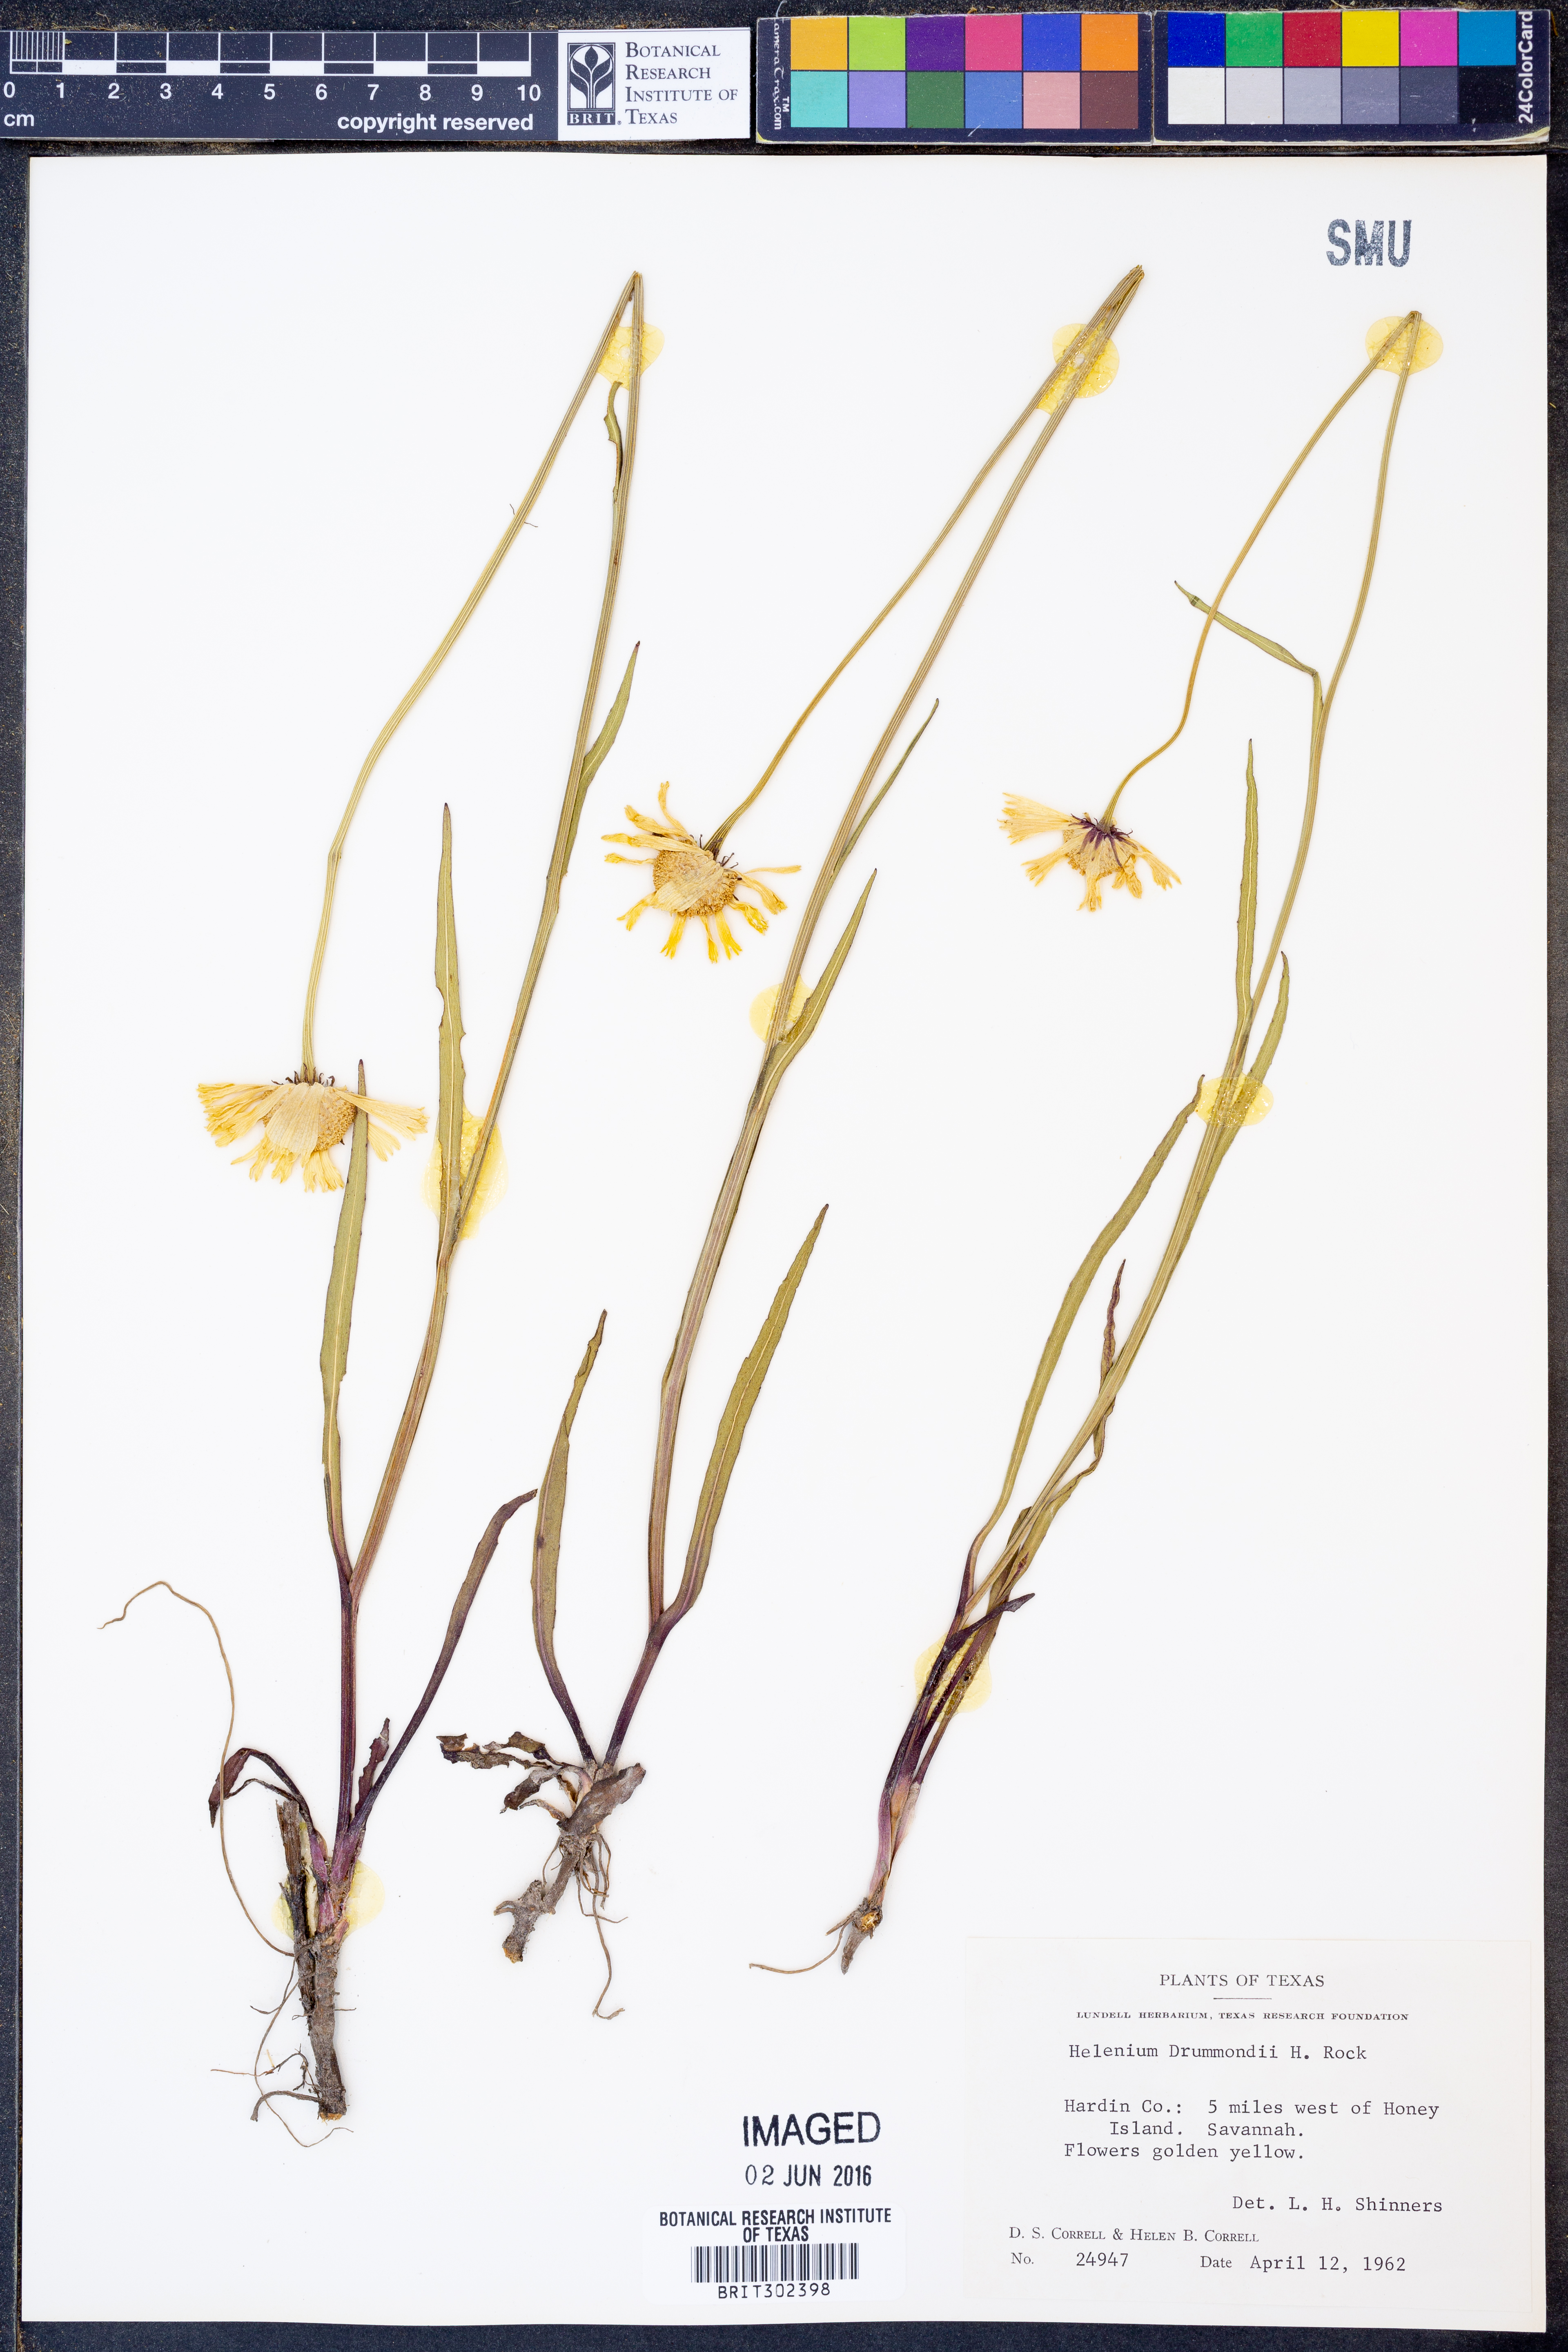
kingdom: Plantae
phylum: Tracheophyta
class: Magnoliopsida
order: Asterales
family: Asteraceae
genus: Helenium
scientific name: Helenium drummondii
